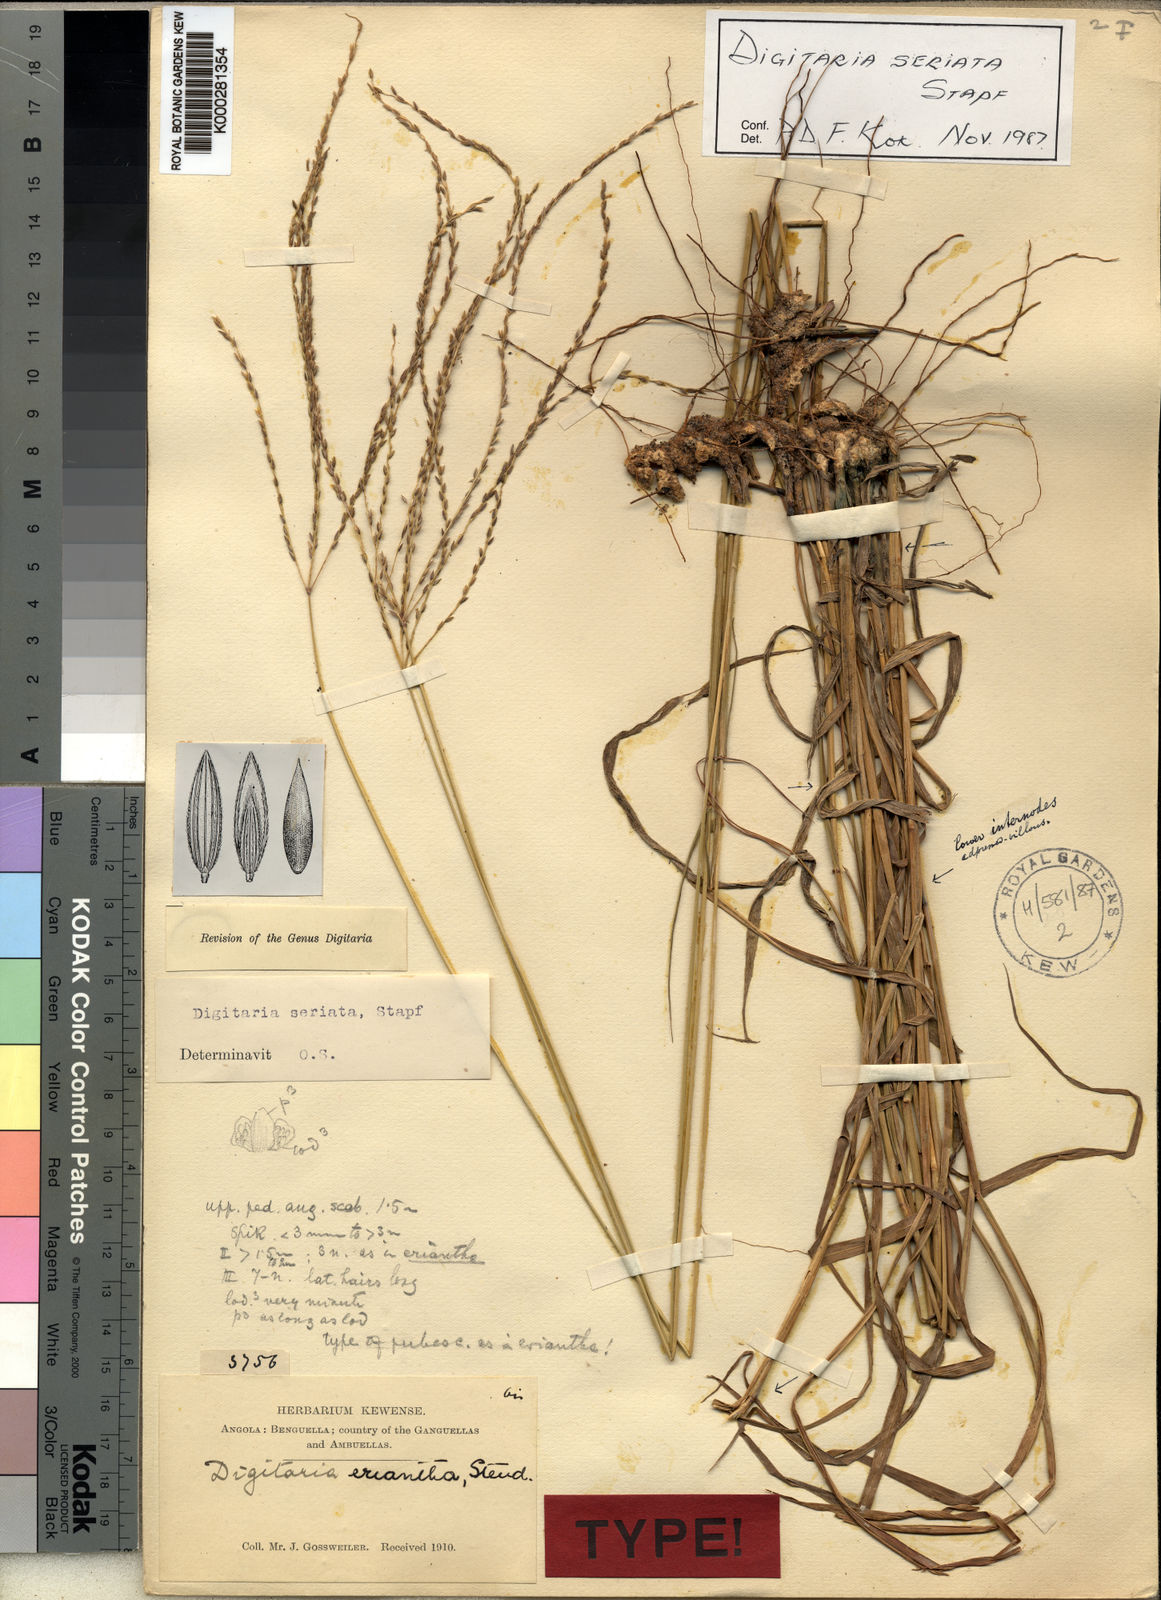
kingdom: Plantae
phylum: Tracheophyta
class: Liliopsida
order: Poales
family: Poaceae
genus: Digitaria
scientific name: Digitaria seriata
